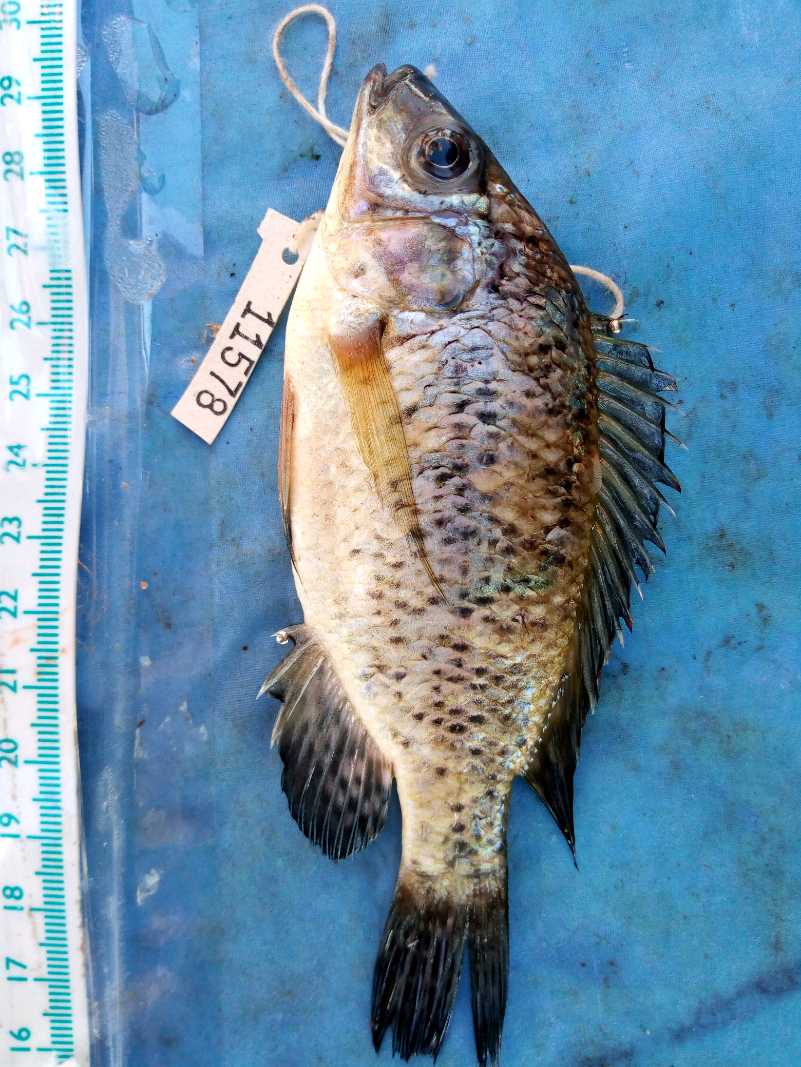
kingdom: Animalia
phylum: Chordata
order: Perciformes
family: Cichlidae
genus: Oreochromis
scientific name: Oreochromis jipe
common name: Jipe tilapia
